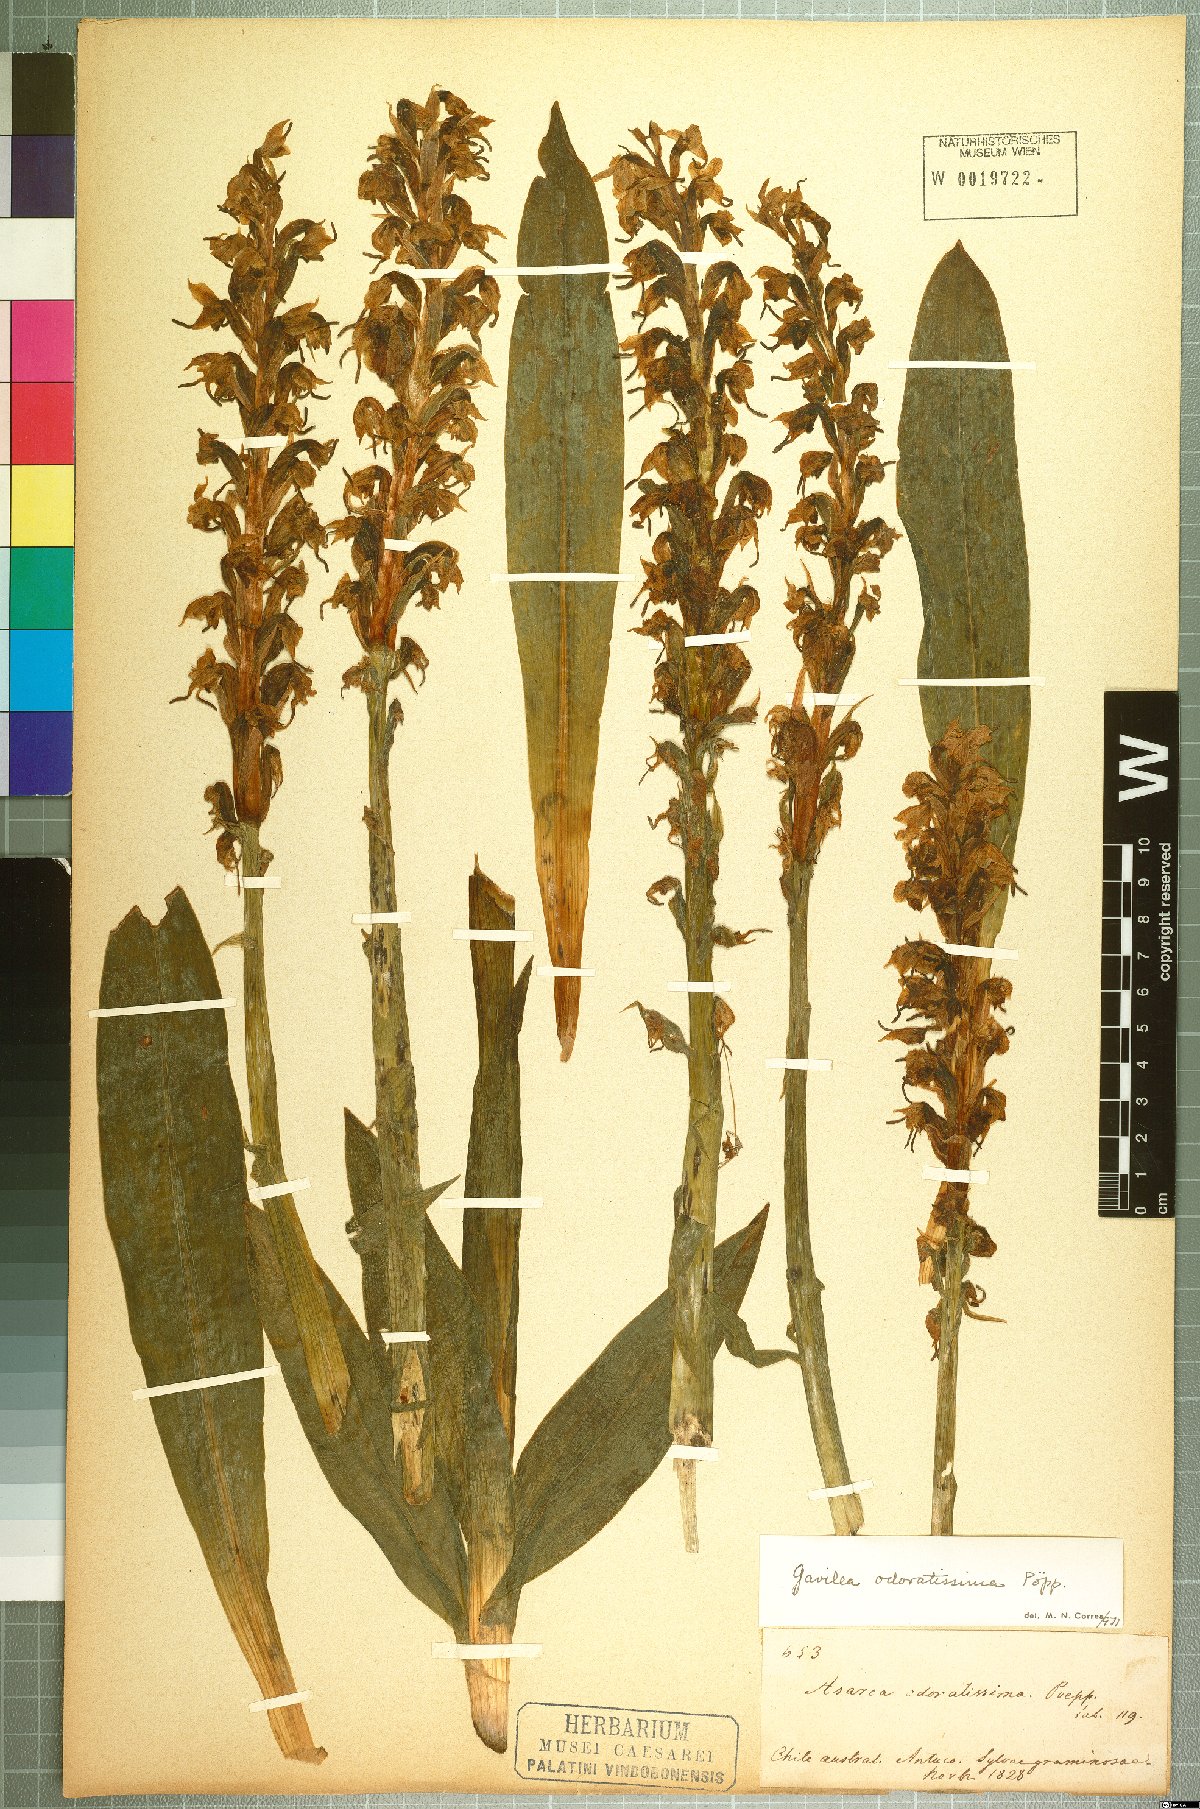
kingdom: Plantae
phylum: Tracheophyta
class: Liliopsida
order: Asparagales
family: Orchidaceae
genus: Gavilea
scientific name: Gavilea odoratissima
